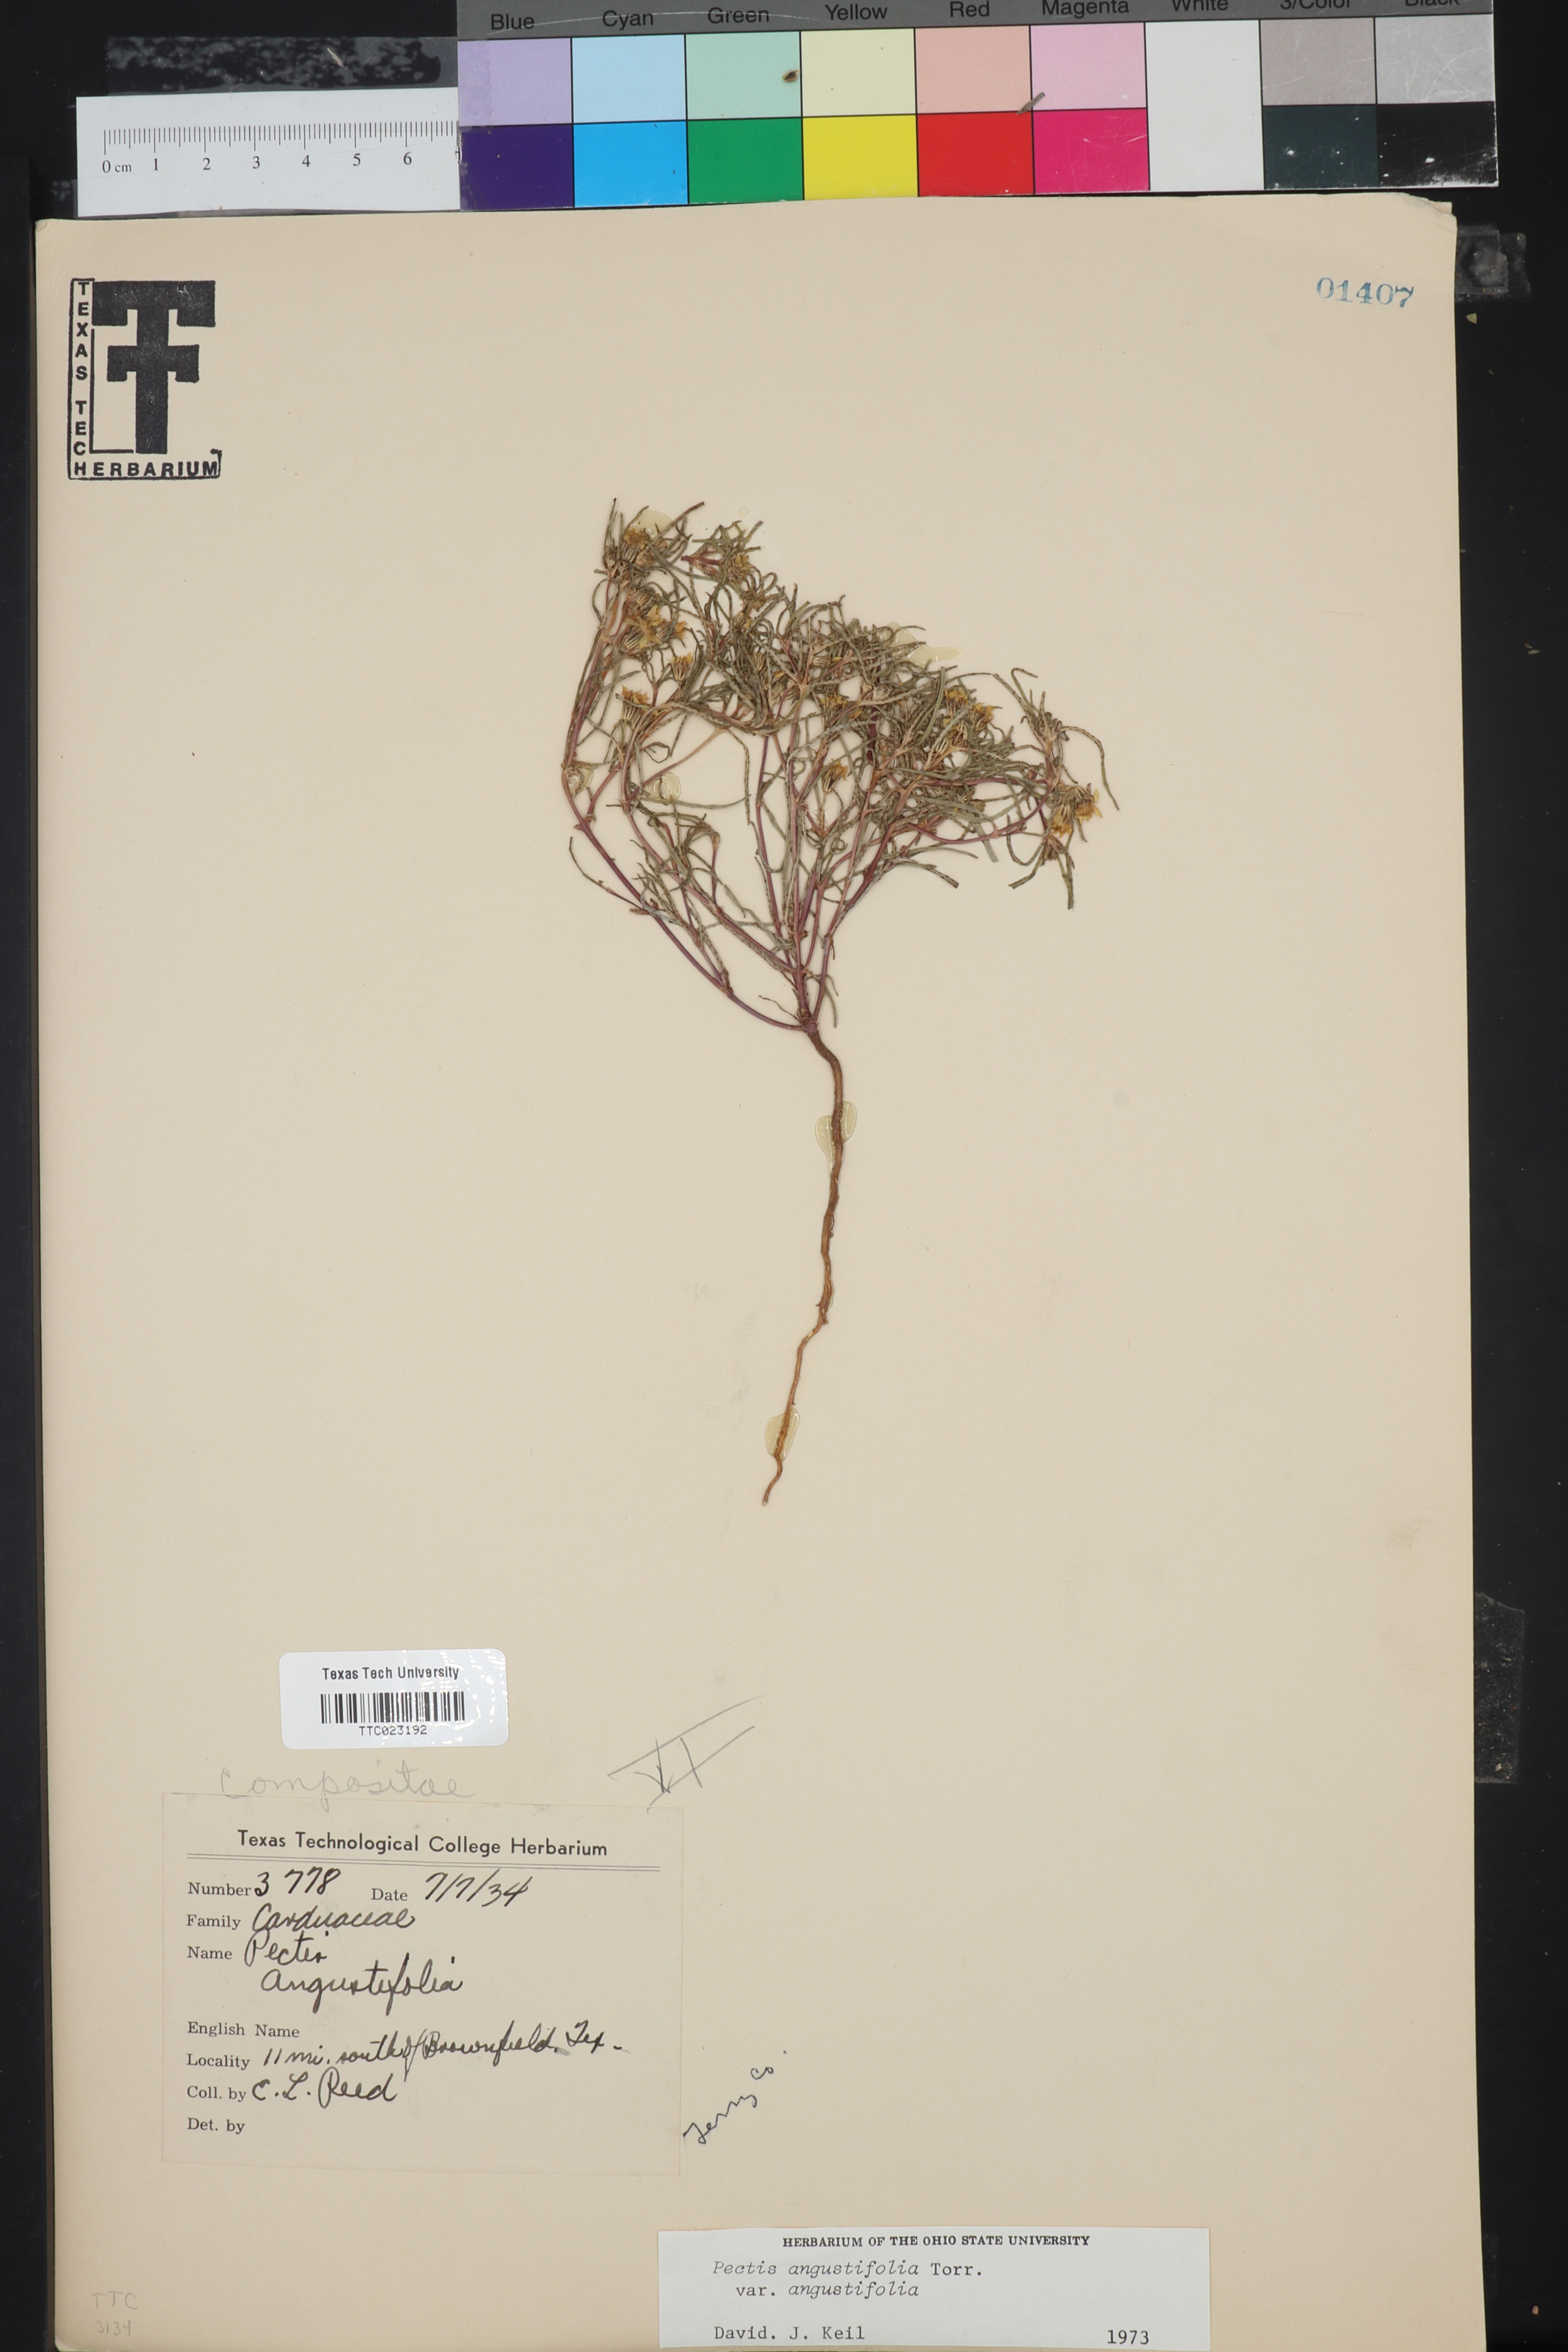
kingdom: Plantae
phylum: Tracheophyta
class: Magnoliopsida
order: Asterales
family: Asteraceae
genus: Pectis
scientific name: Pectis angustifolia
